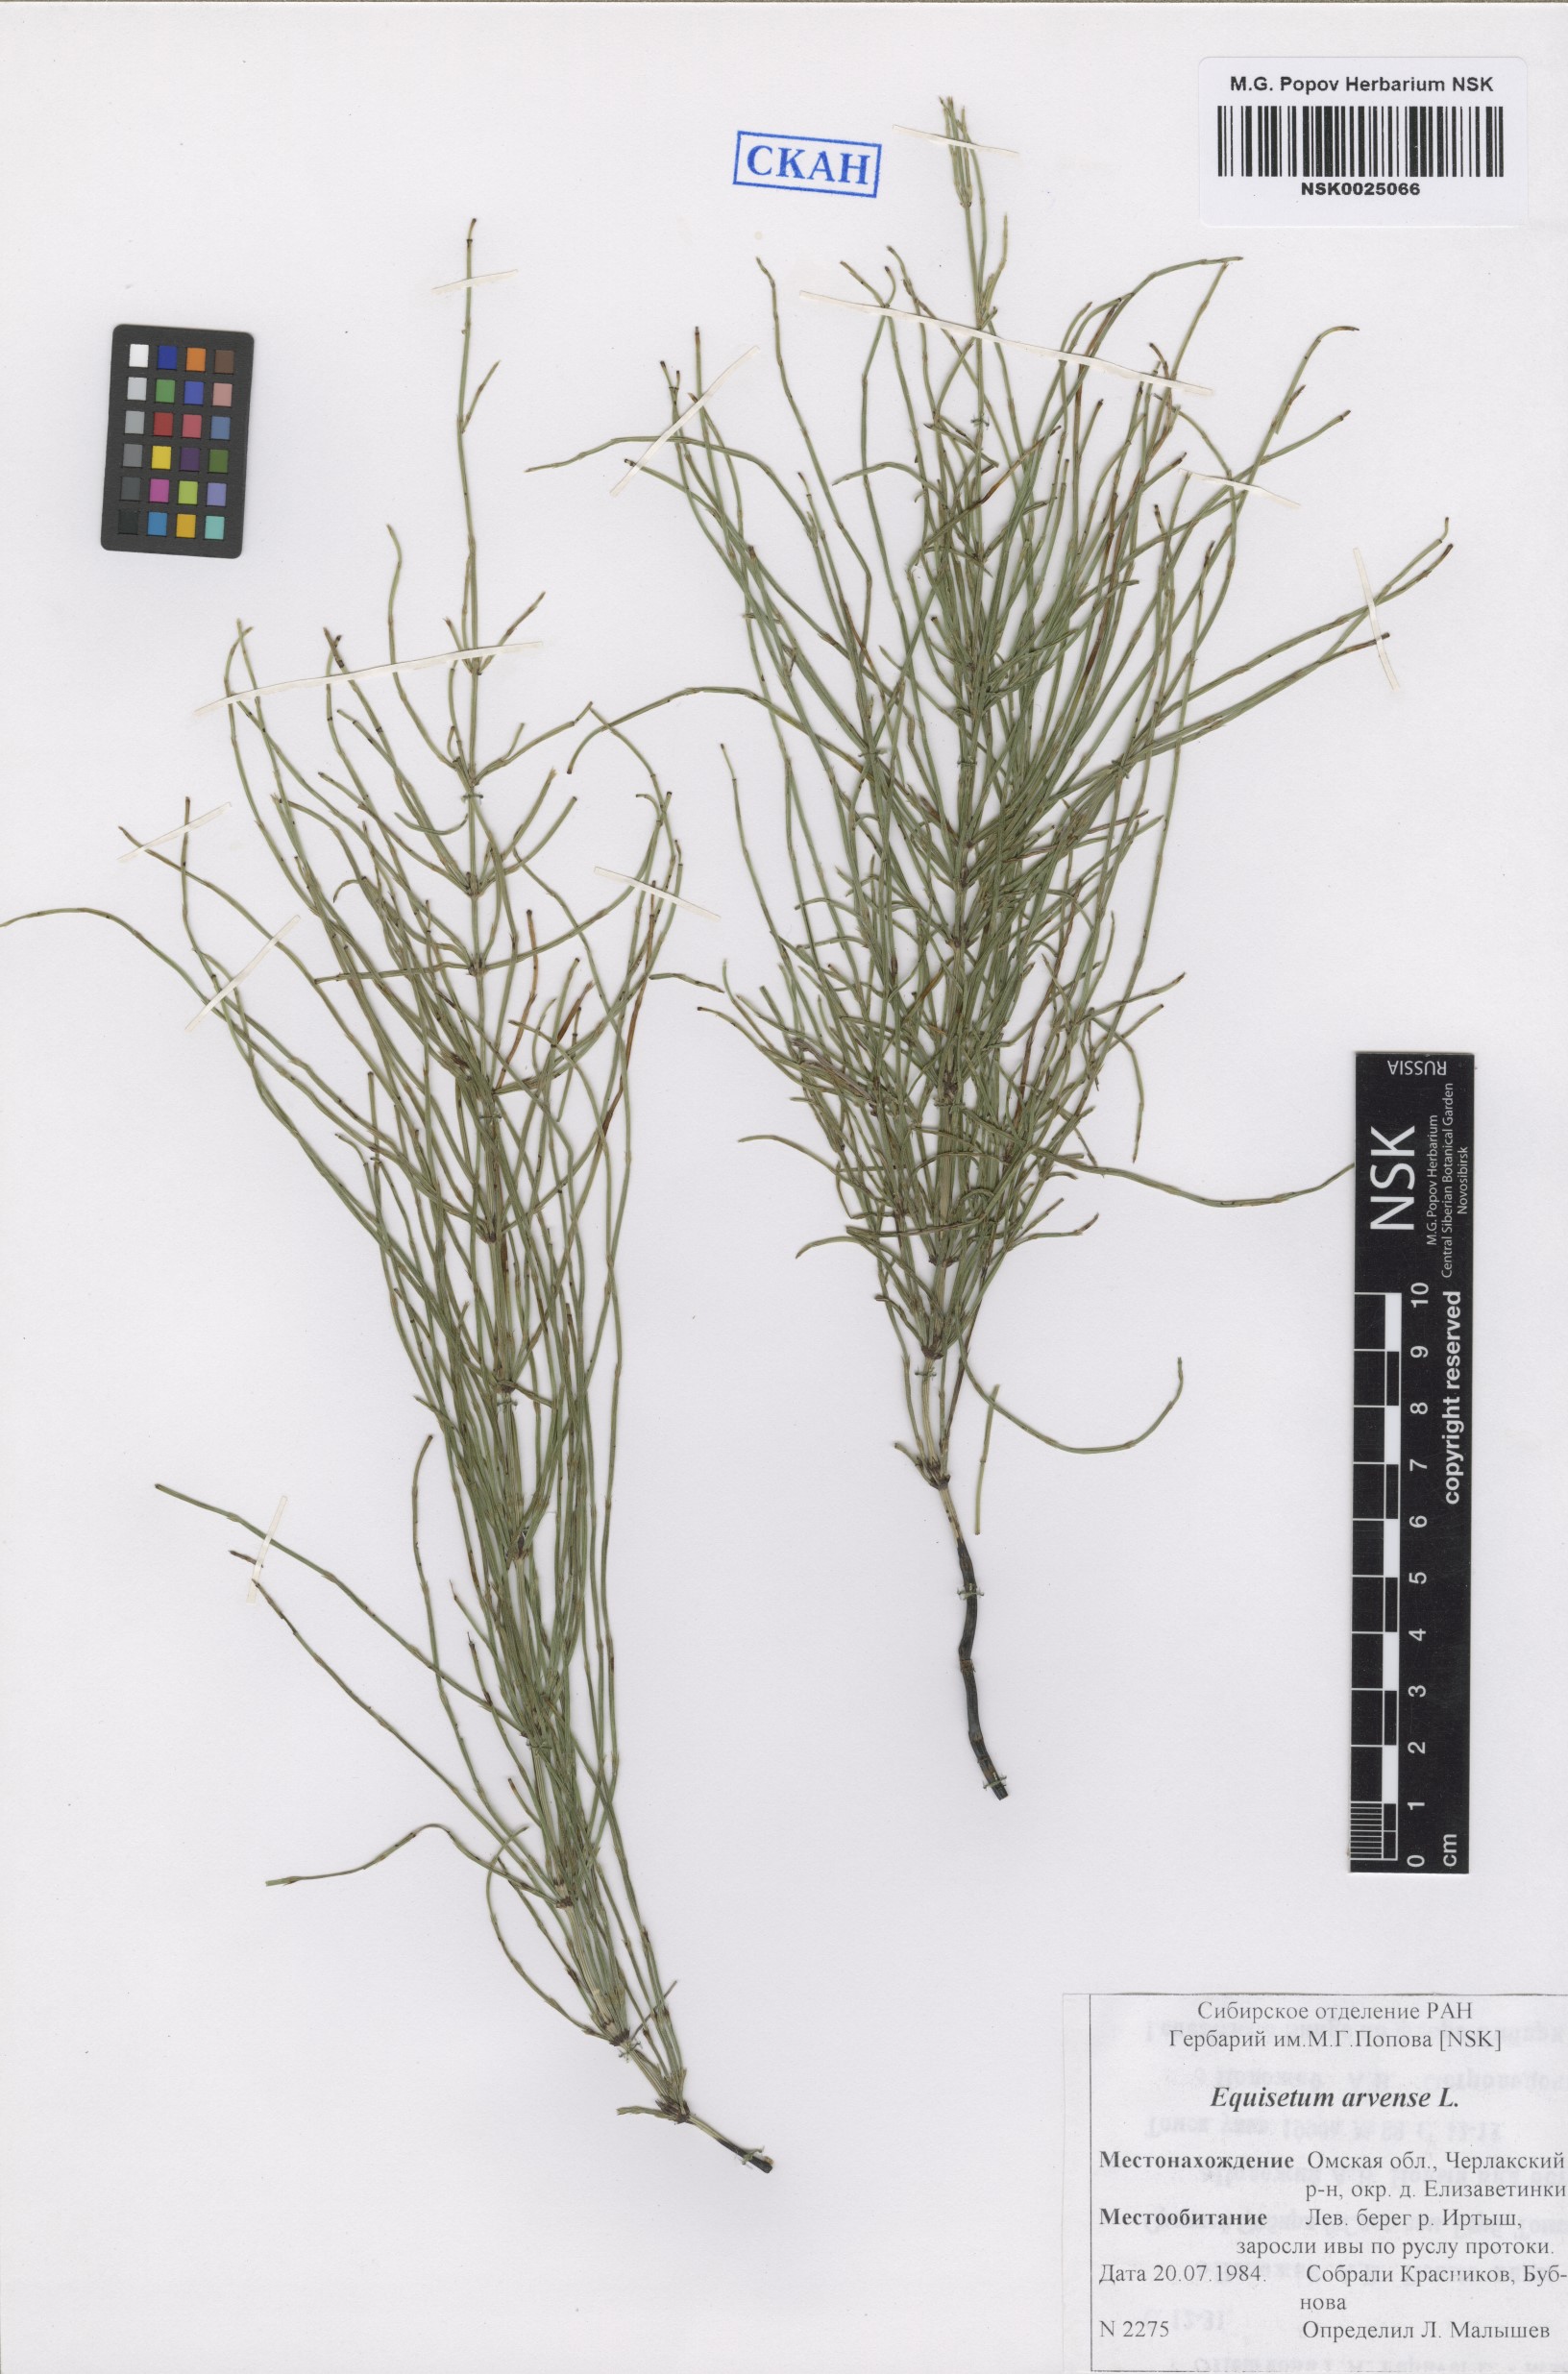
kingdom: Plantae
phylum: Tracheophyta
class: Polypodiopsida
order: Equisetales
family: Equisetaceae
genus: Equisetum
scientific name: Equisetum arvense
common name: Field horsetail
